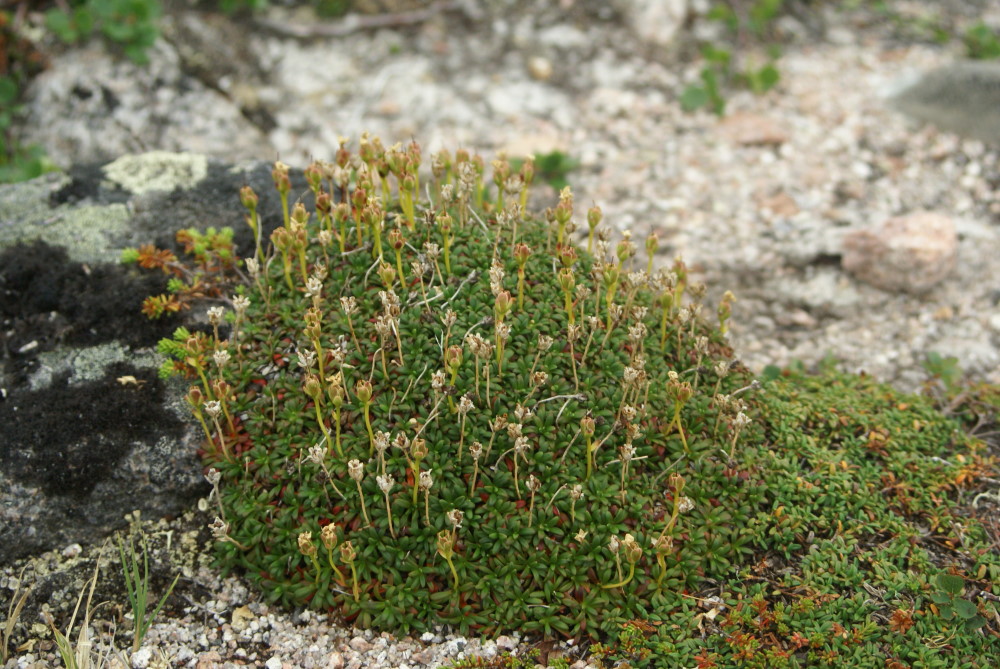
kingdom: Plantae
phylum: Tracheophyta
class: Magnoliopsida
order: Ericales
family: Diapensiaceae
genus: Diapensia
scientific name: Diapensia lapponica
